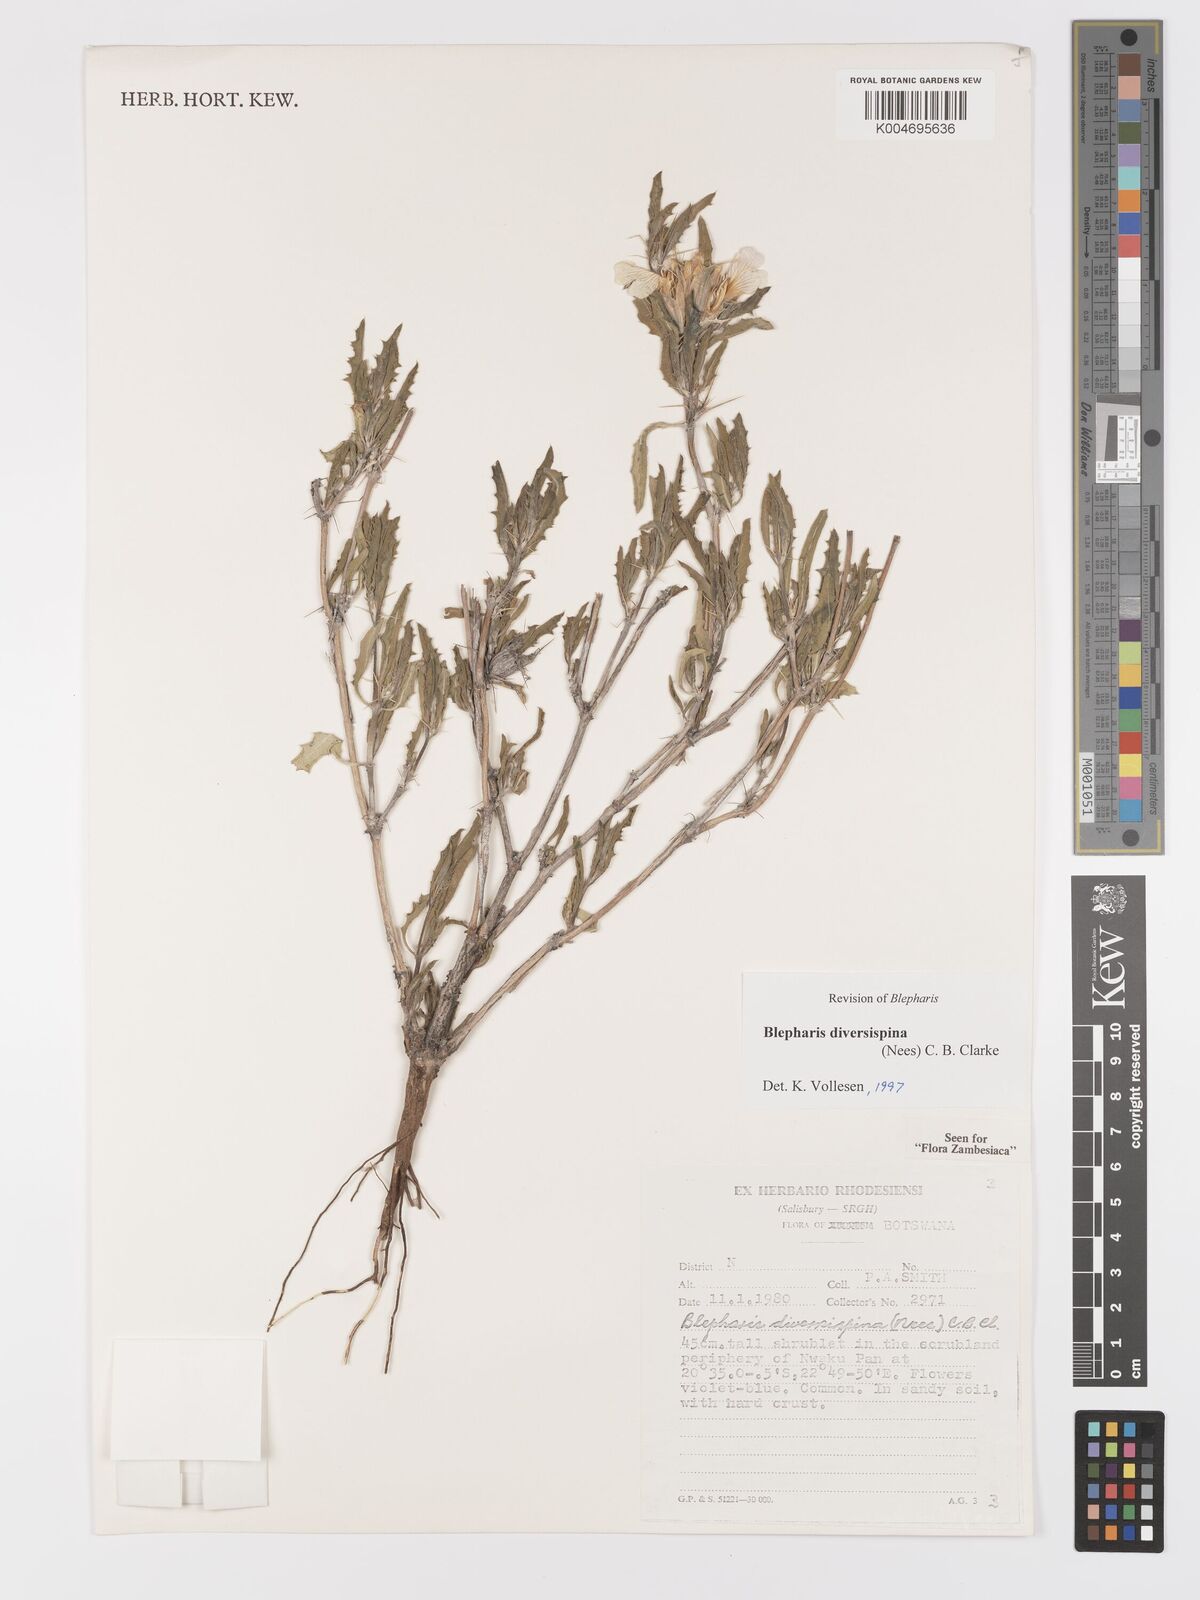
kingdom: Plantae
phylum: Tracheophyta
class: Magnoliopsida
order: Lamiales
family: Acanthaceae
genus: Blepharis
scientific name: Blepharis diversispina
